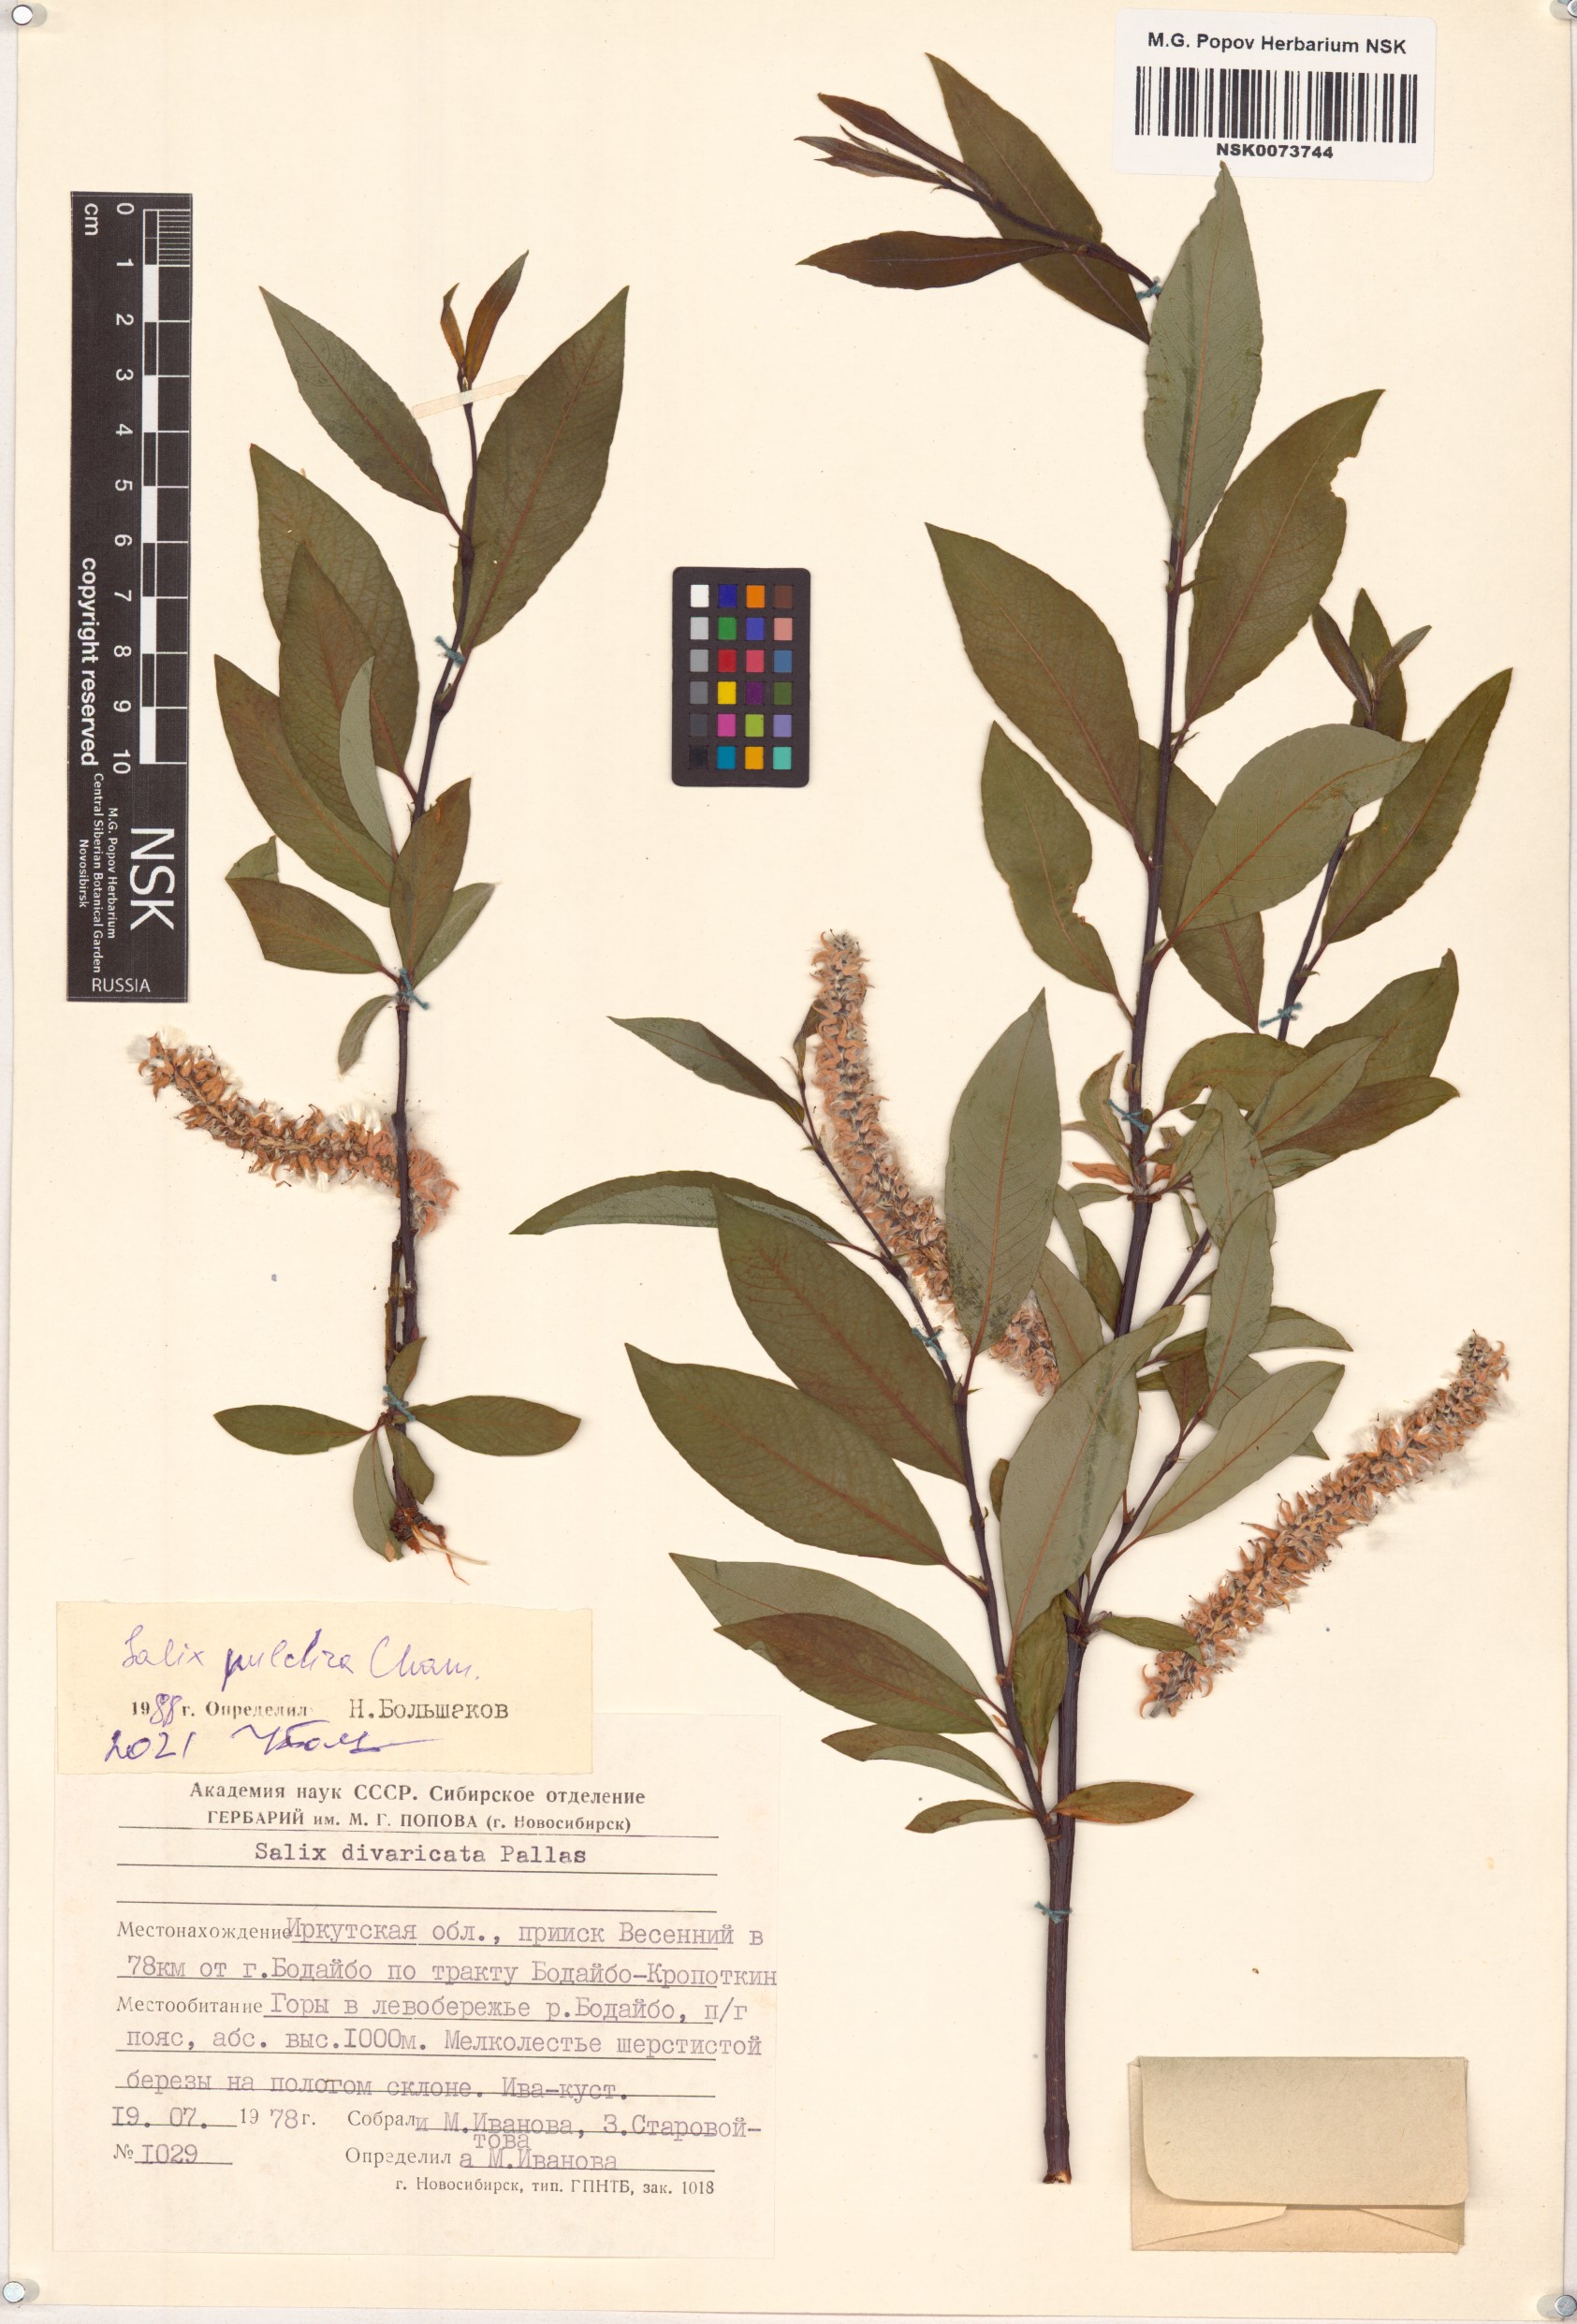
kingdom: Plantae
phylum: Tracheophyta
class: Magnoliopsida
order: Malpighiales
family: Salicaceae
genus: Salix
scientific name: Salix pulchra
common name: Diamond-leaved willow
